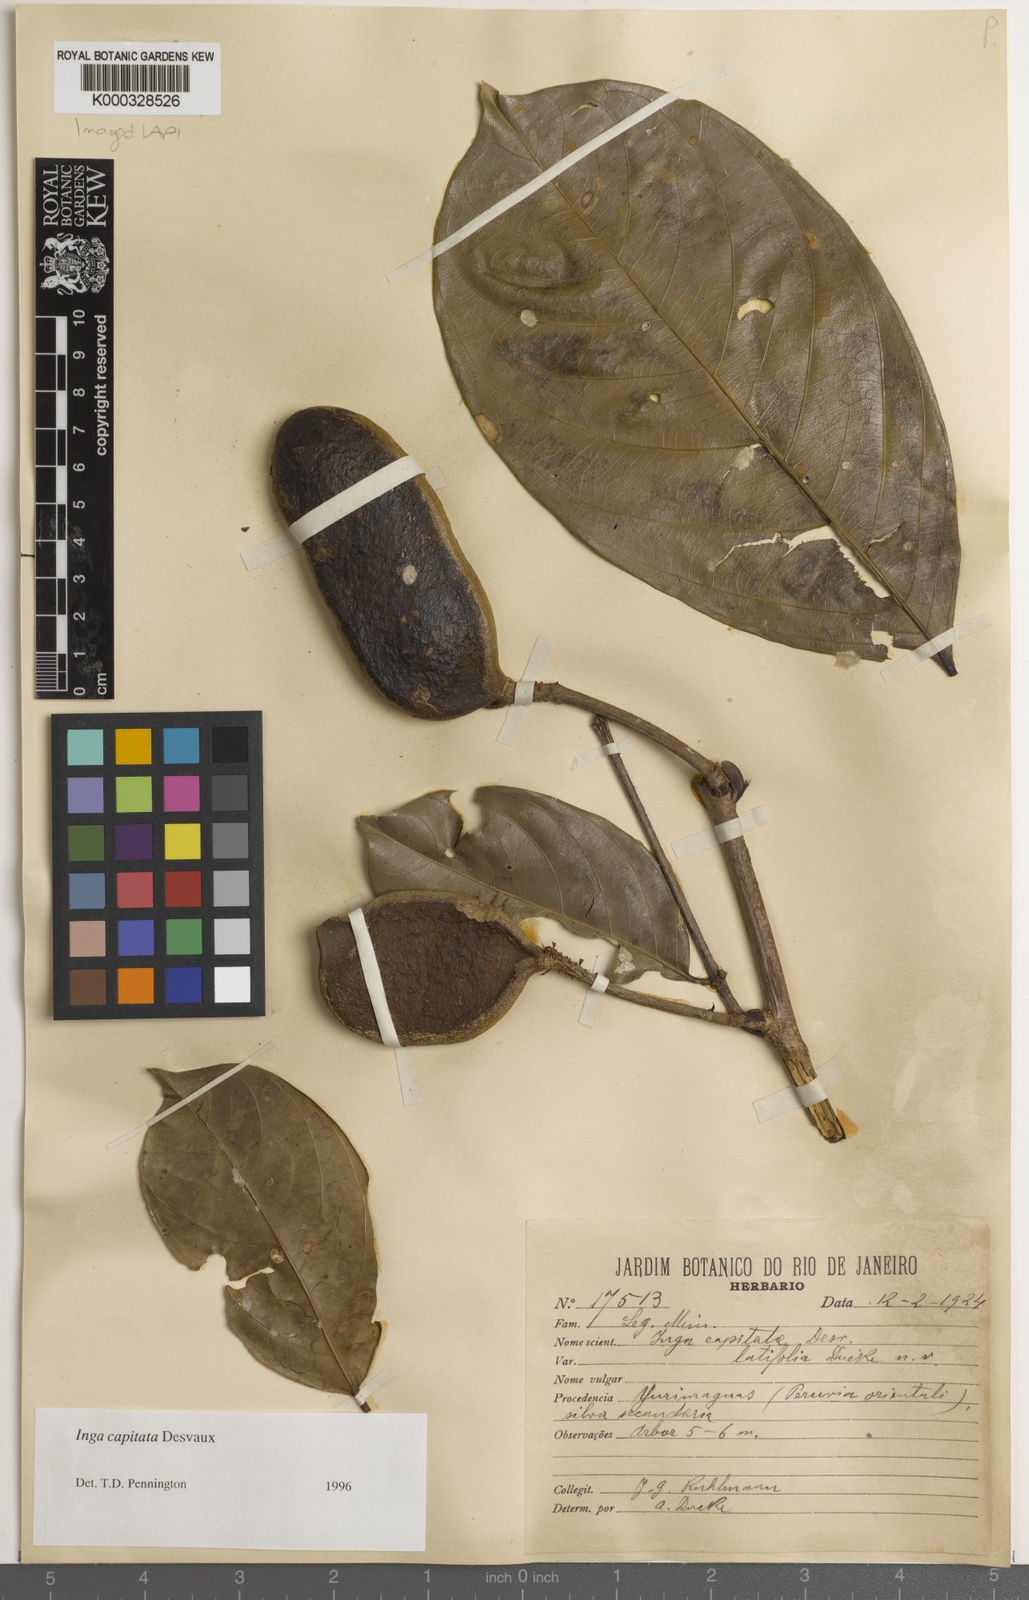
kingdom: Plantae
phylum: Tracheophyta
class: Magnoliopsida
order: Fabales
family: Fabaceae
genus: Inga
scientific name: Inga capitata
